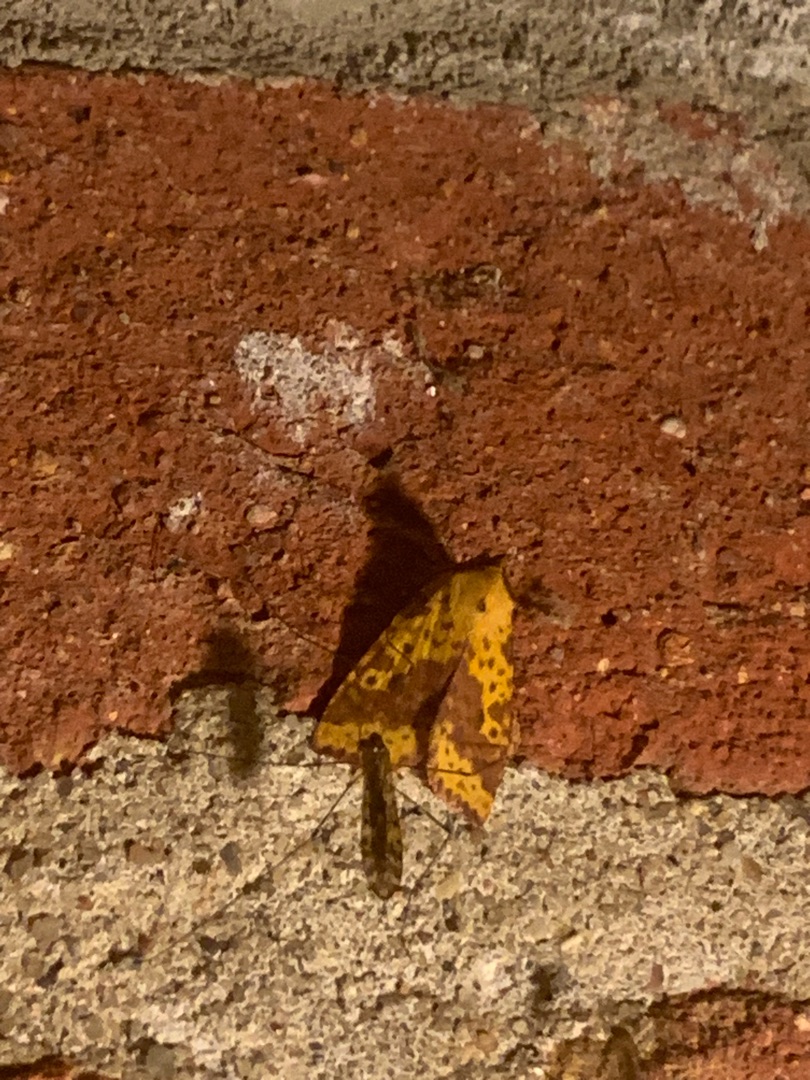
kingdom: Animalia
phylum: Arthropoda
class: Insecta
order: Lepidoptera
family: Noctuidae
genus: Xanthia
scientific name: Xanthia togata
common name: Toga-septemberugle
